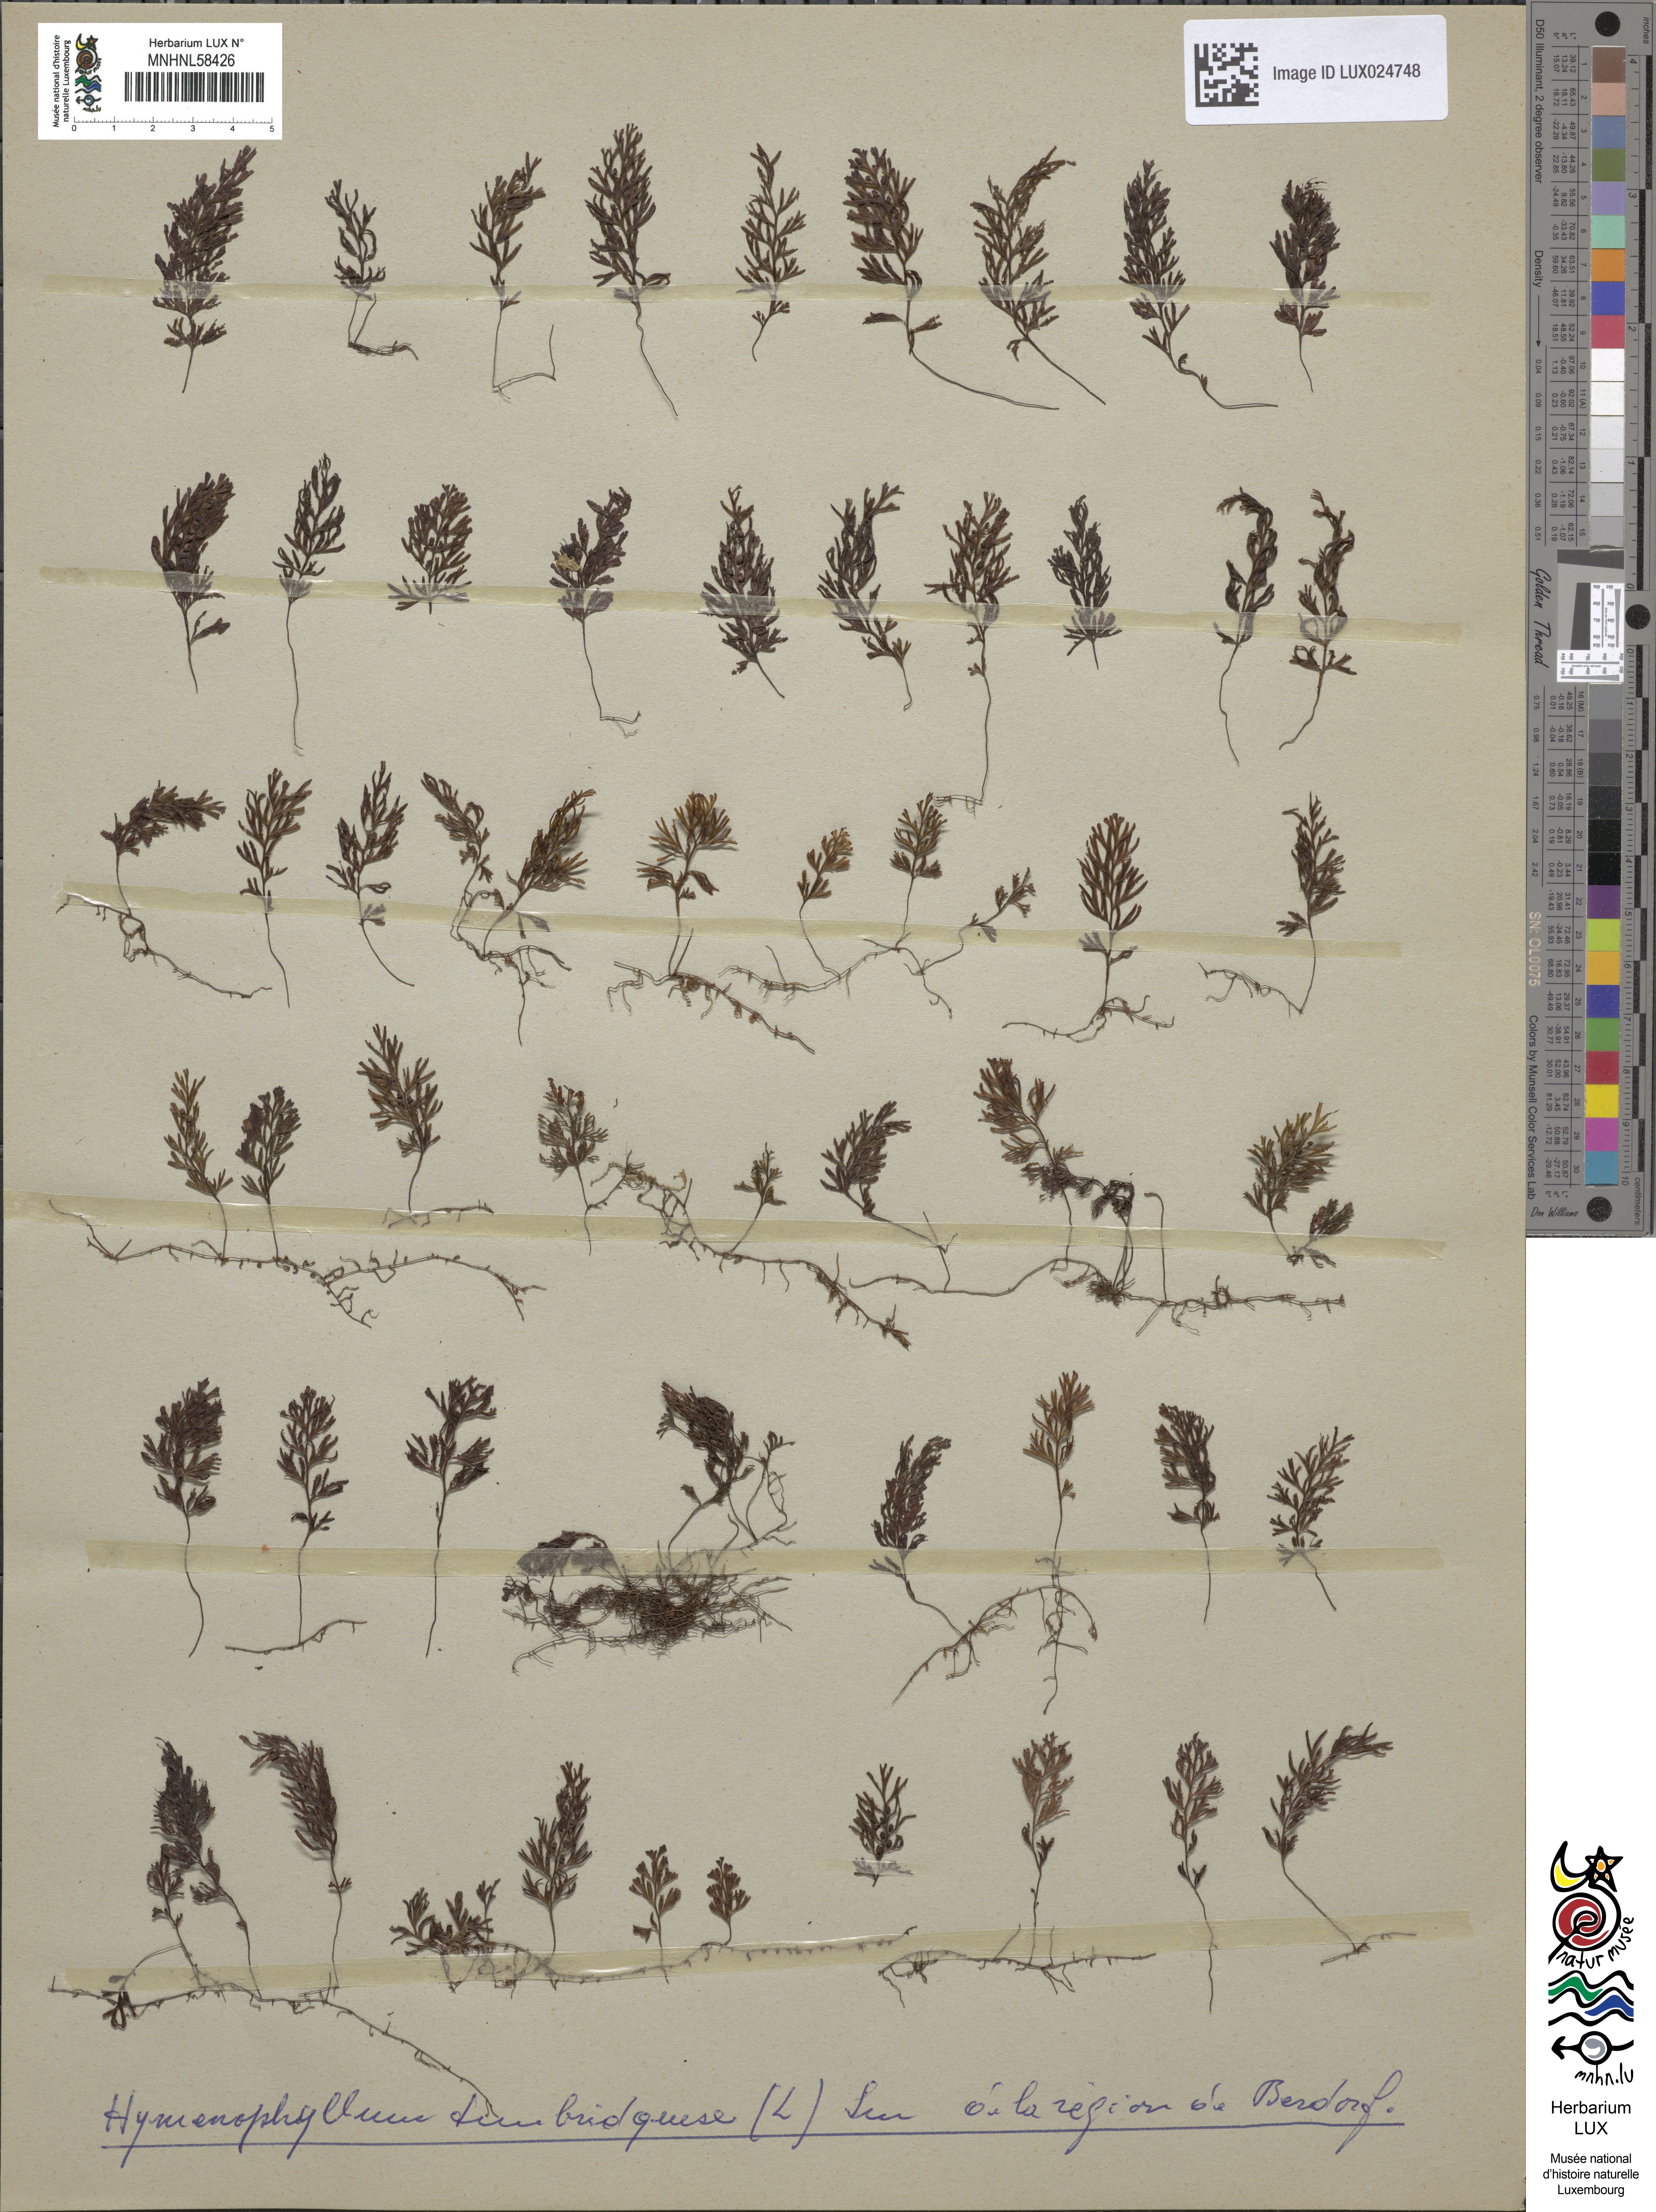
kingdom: Plantae
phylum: Tracheophyta
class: Polypodiopsida
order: Hymenophyllales
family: Hymenophyllaceae
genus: Hymenophyllum
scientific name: Hymenophyllum tunbrigense
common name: Tunbridge filmy fern
